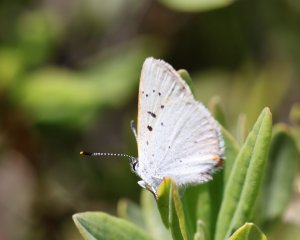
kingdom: Animalia
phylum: Arthropoda
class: Insecta
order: Lepidoptera
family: Sesiidae
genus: Sesia
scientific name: Sesia Lycaena epixanthe
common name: Bog Copper
